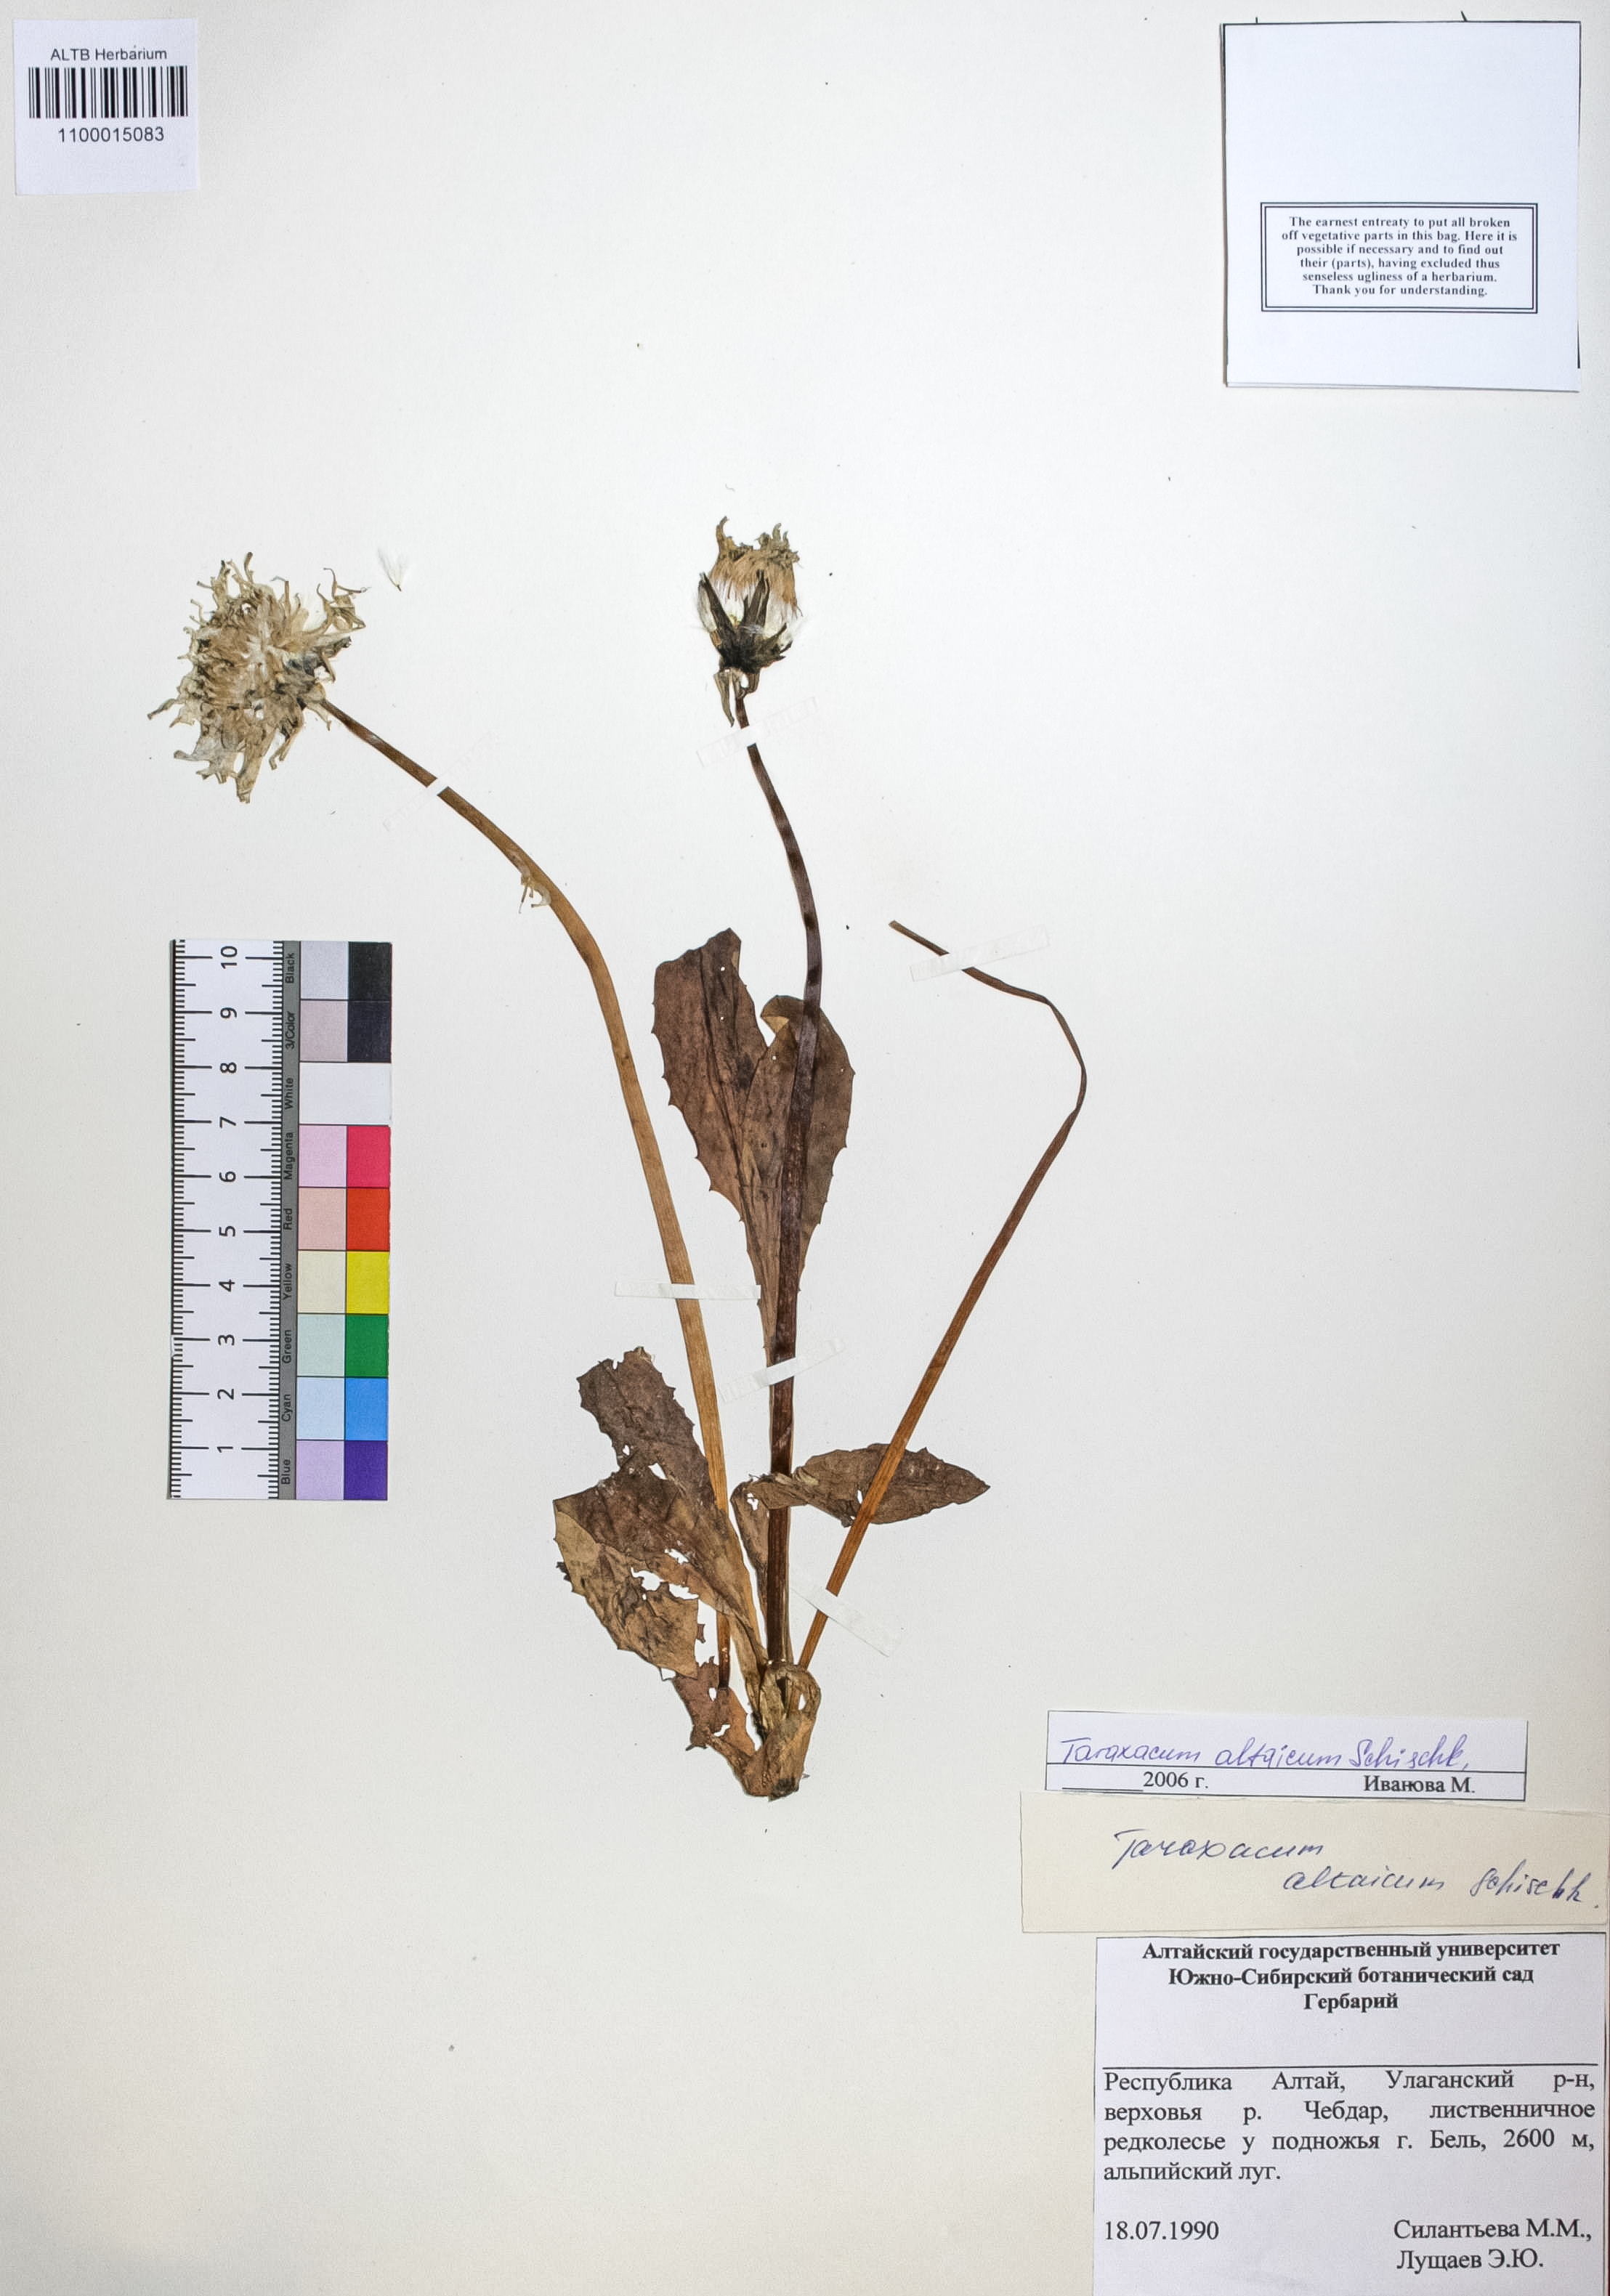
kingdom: Plantae
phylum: Tracheophyta
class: Magnoliopsida
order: Asterales
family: Asteraceae
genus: Taraxacum
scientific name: Taraxacum ceratophorum
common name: Horn-bearing dandelion
